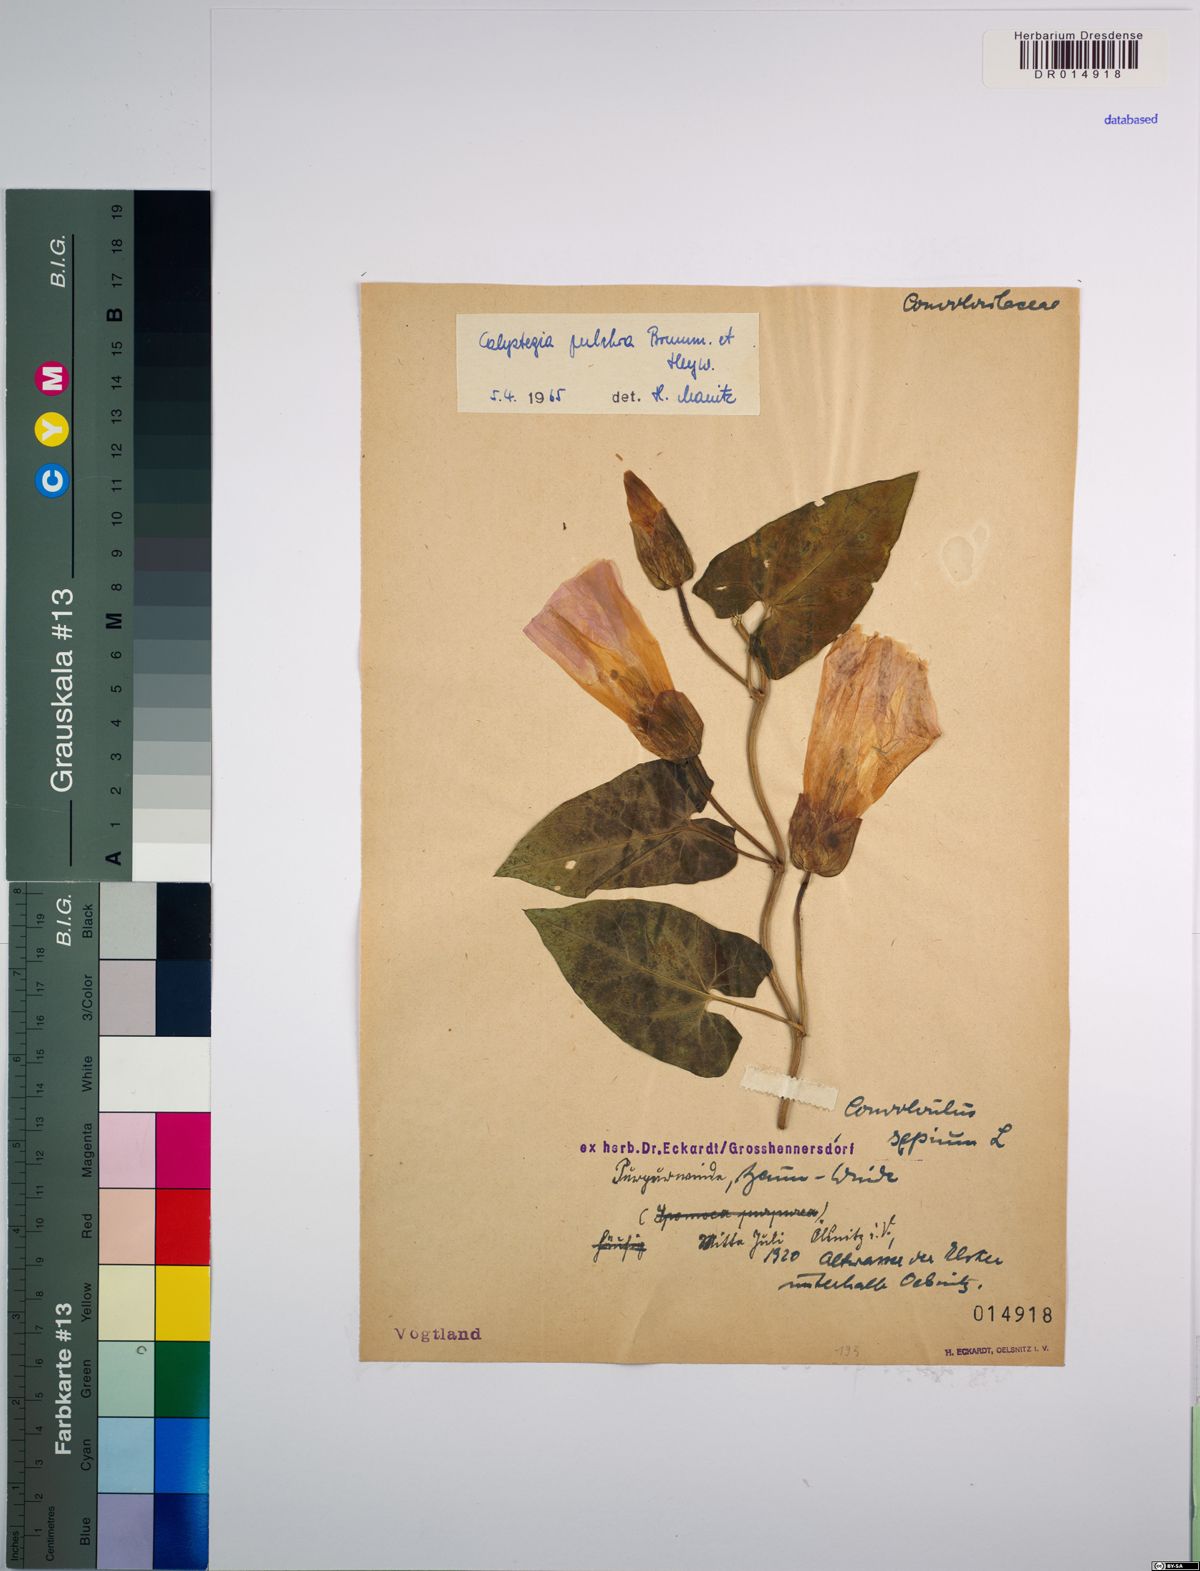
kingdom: Plantae
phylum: Tracheophyta
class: Magnoliopsida
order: Solanales
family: Convolvulaceae
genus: Calystegia
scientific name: Calystegia pulchra
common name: Hairy bindweed
